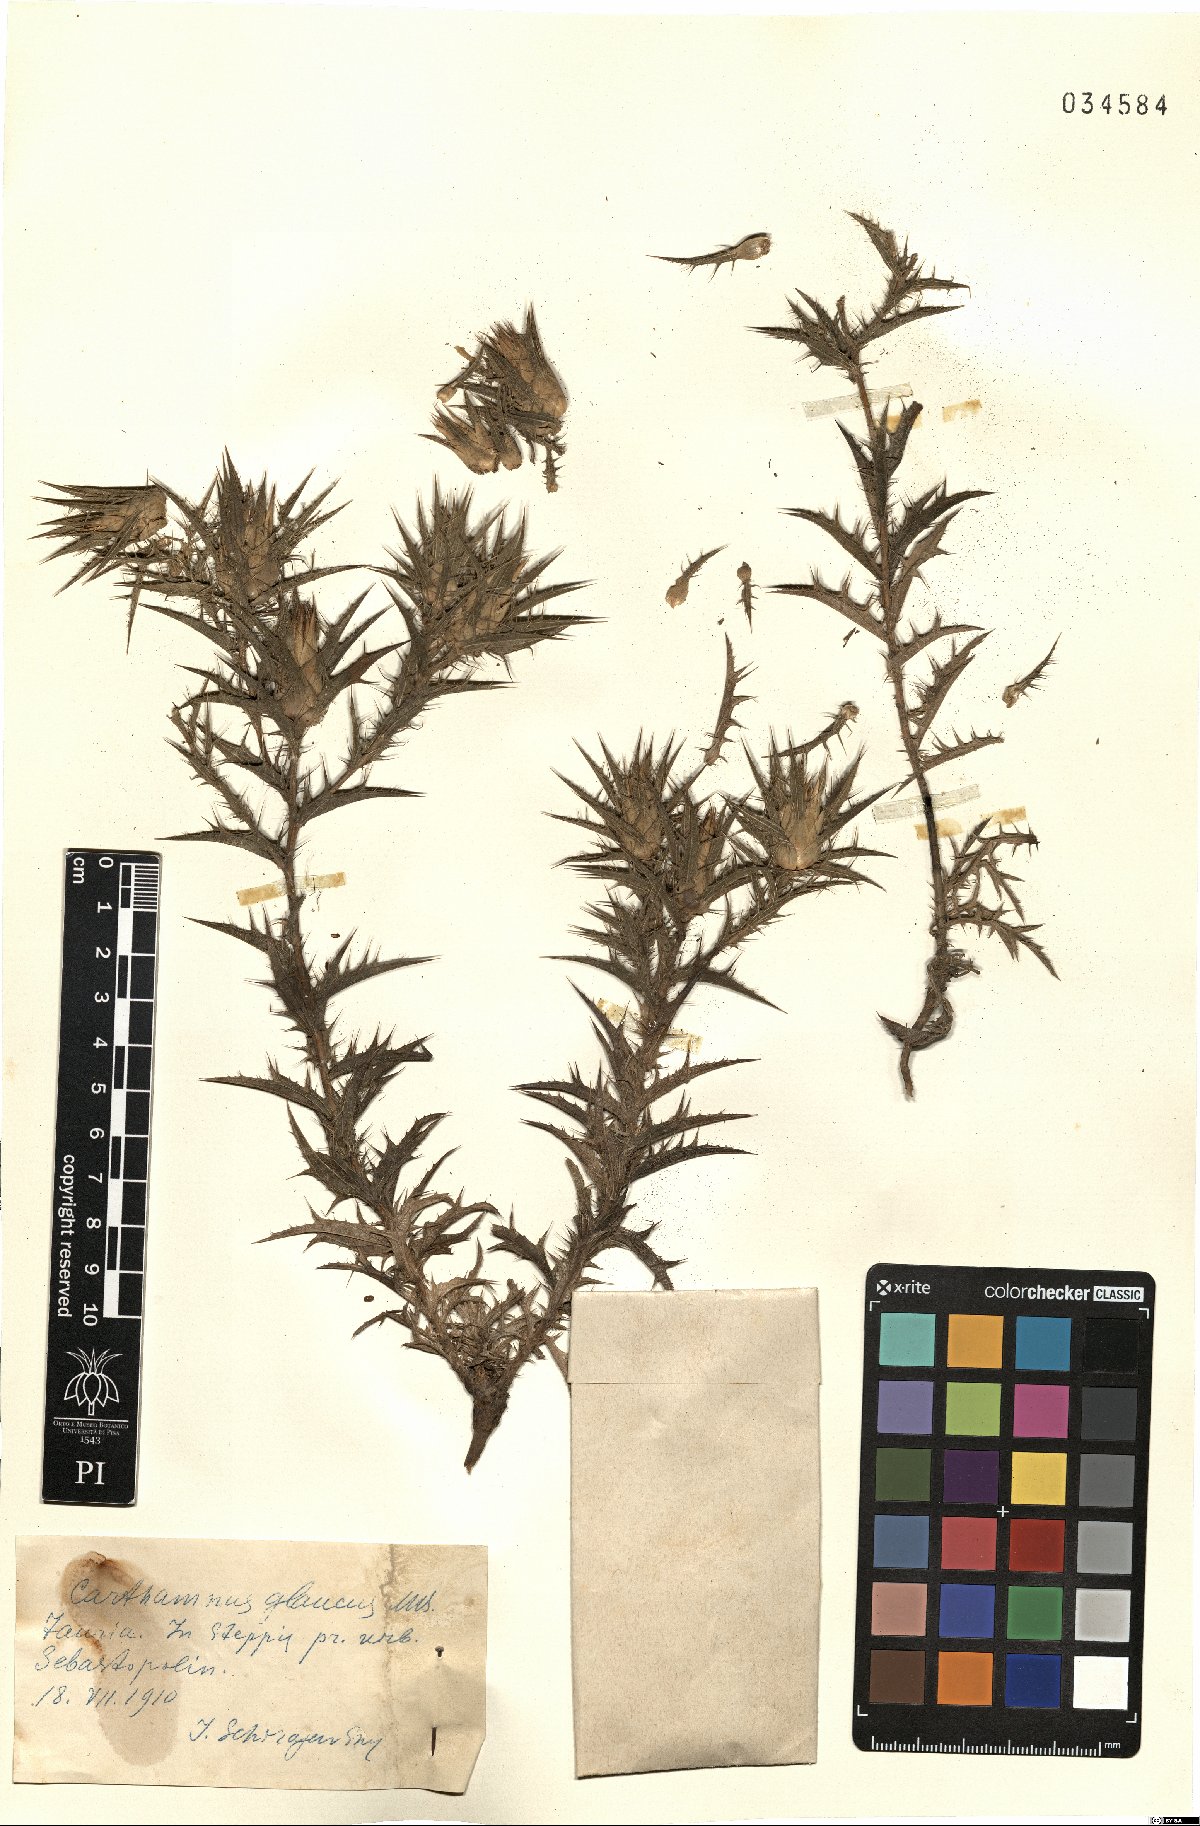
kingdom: Plantae
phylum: Tracheophyta
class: Magnoliopsida
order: Asterales
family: Asteraceae
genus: Carthamus
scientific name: Carthamus glaucus
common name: Mediterranean thistle
